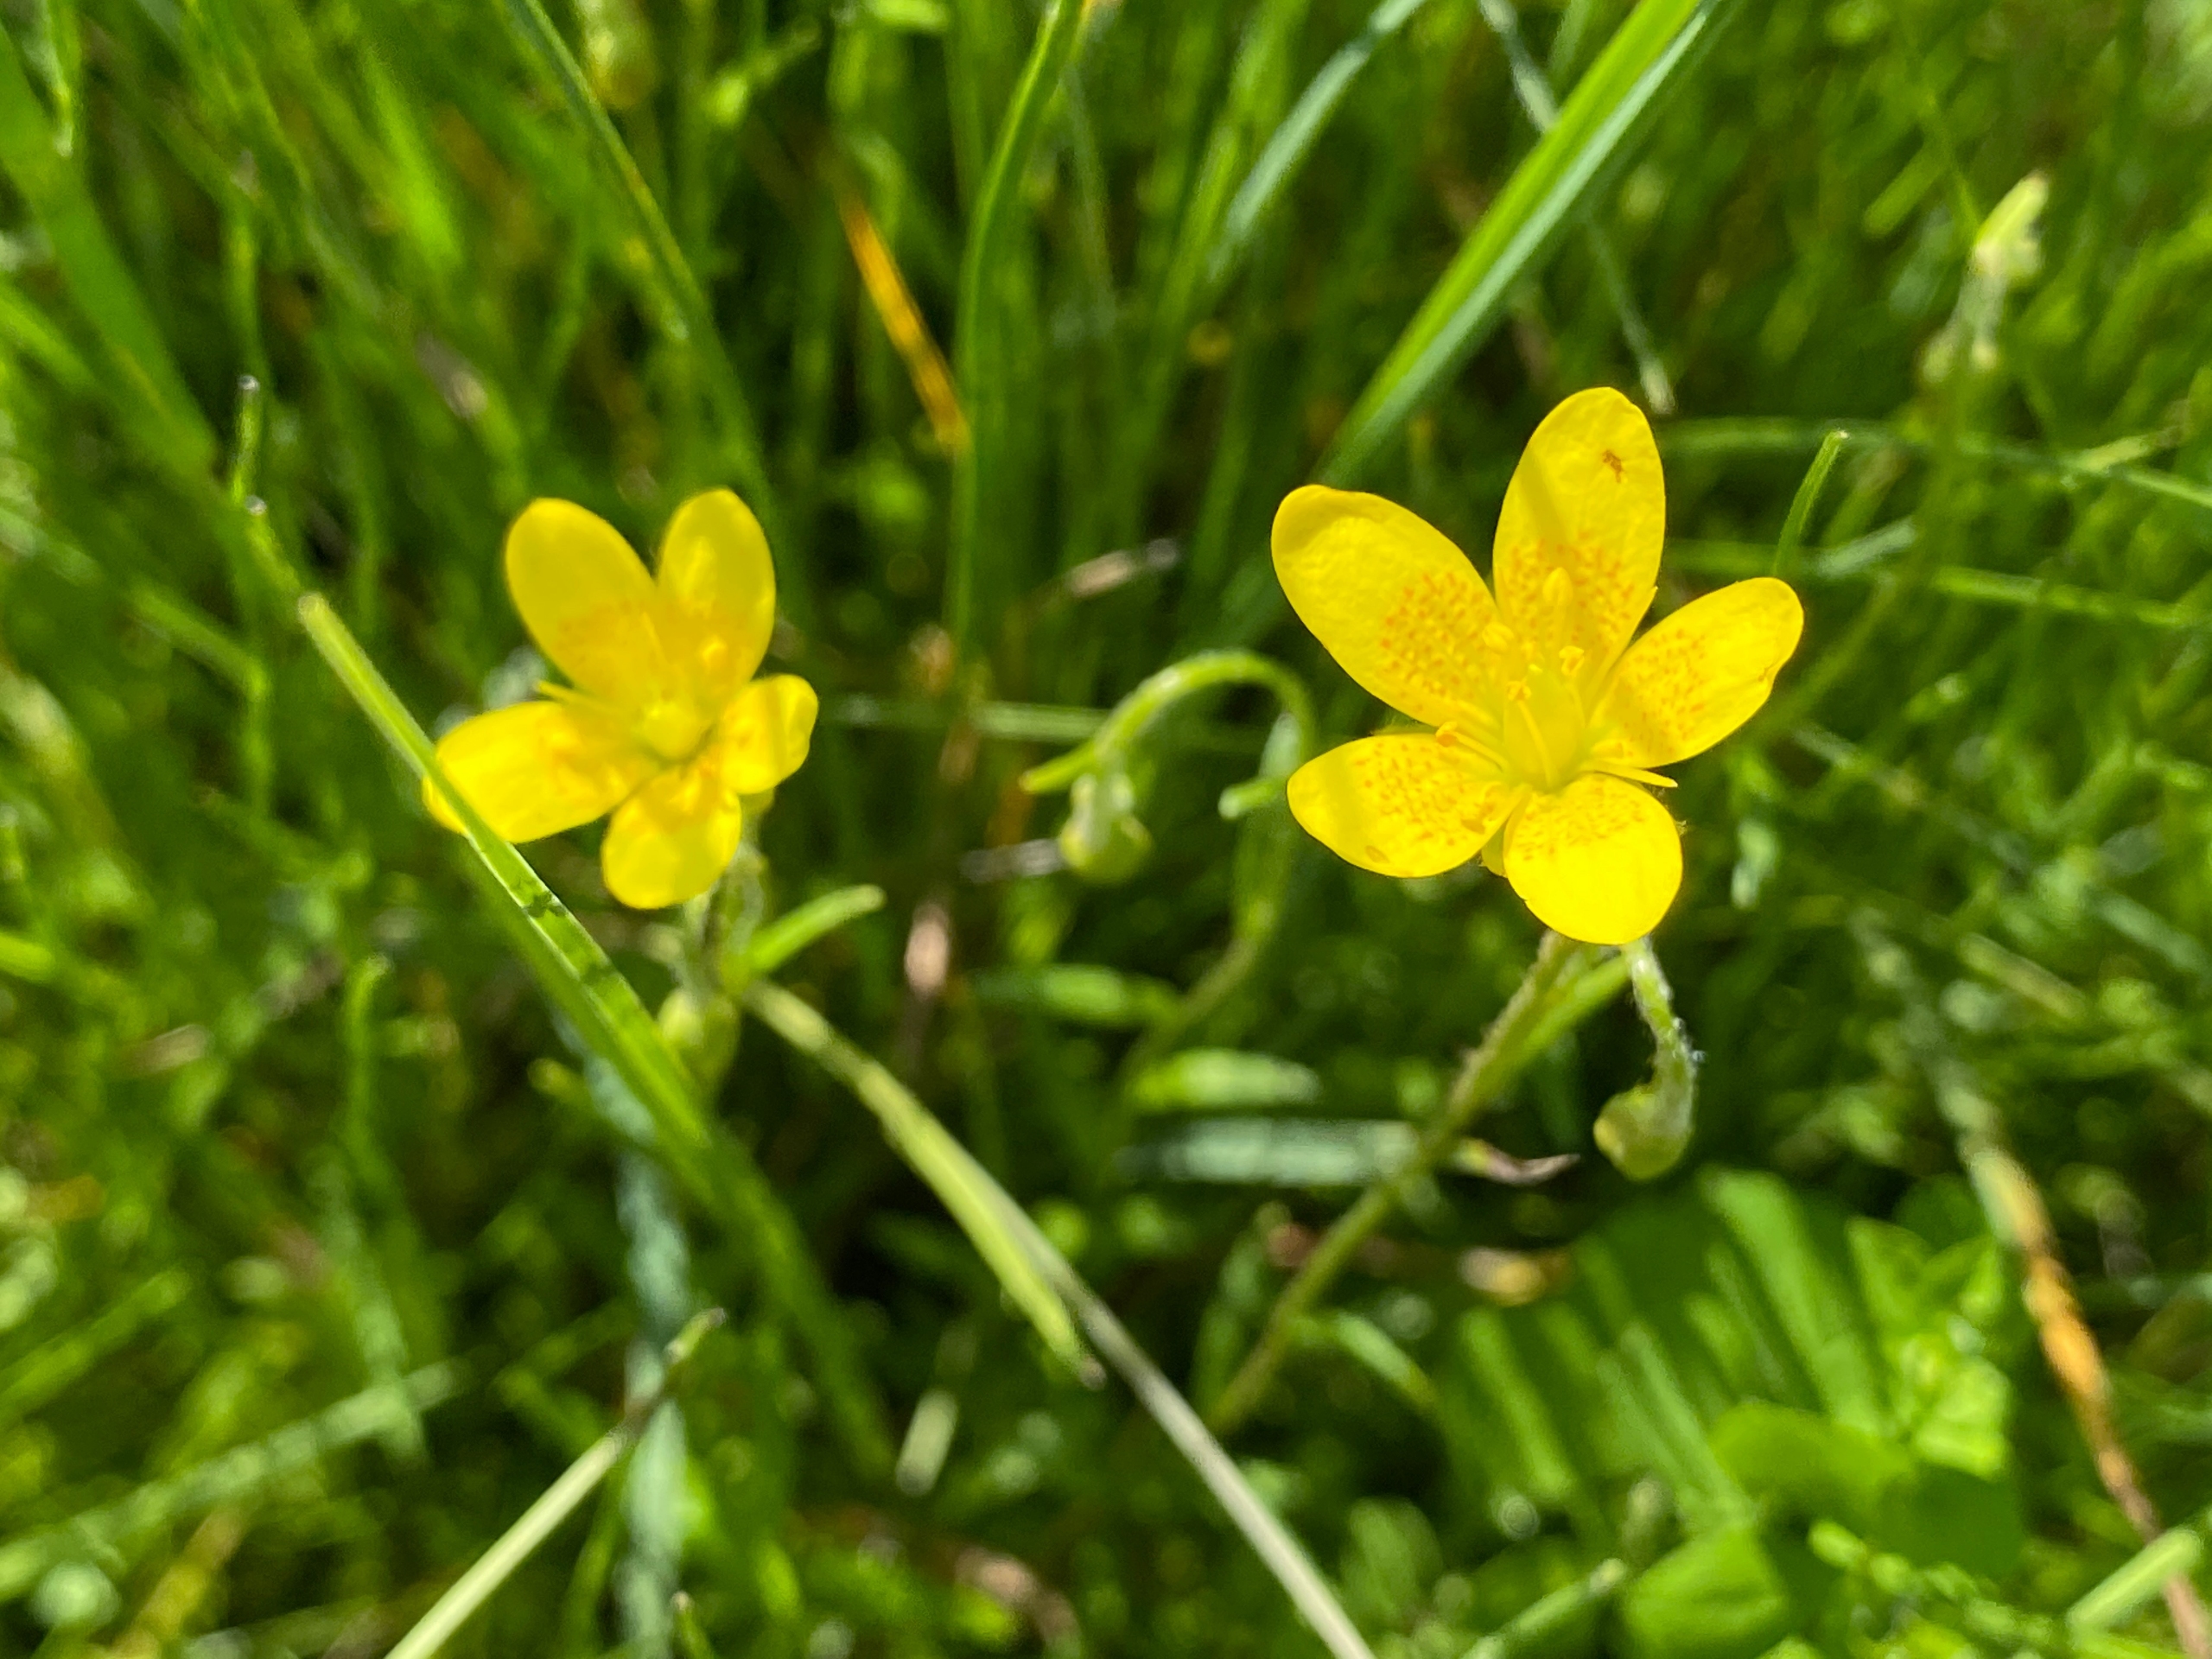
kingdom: Plantae
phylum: Tracheophyta
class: Magnoliopsida
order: Saxifragales
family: Saxifragaceae
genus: Saxifraga
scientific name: Saxifraga hirculus
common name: Gul stenbræk
